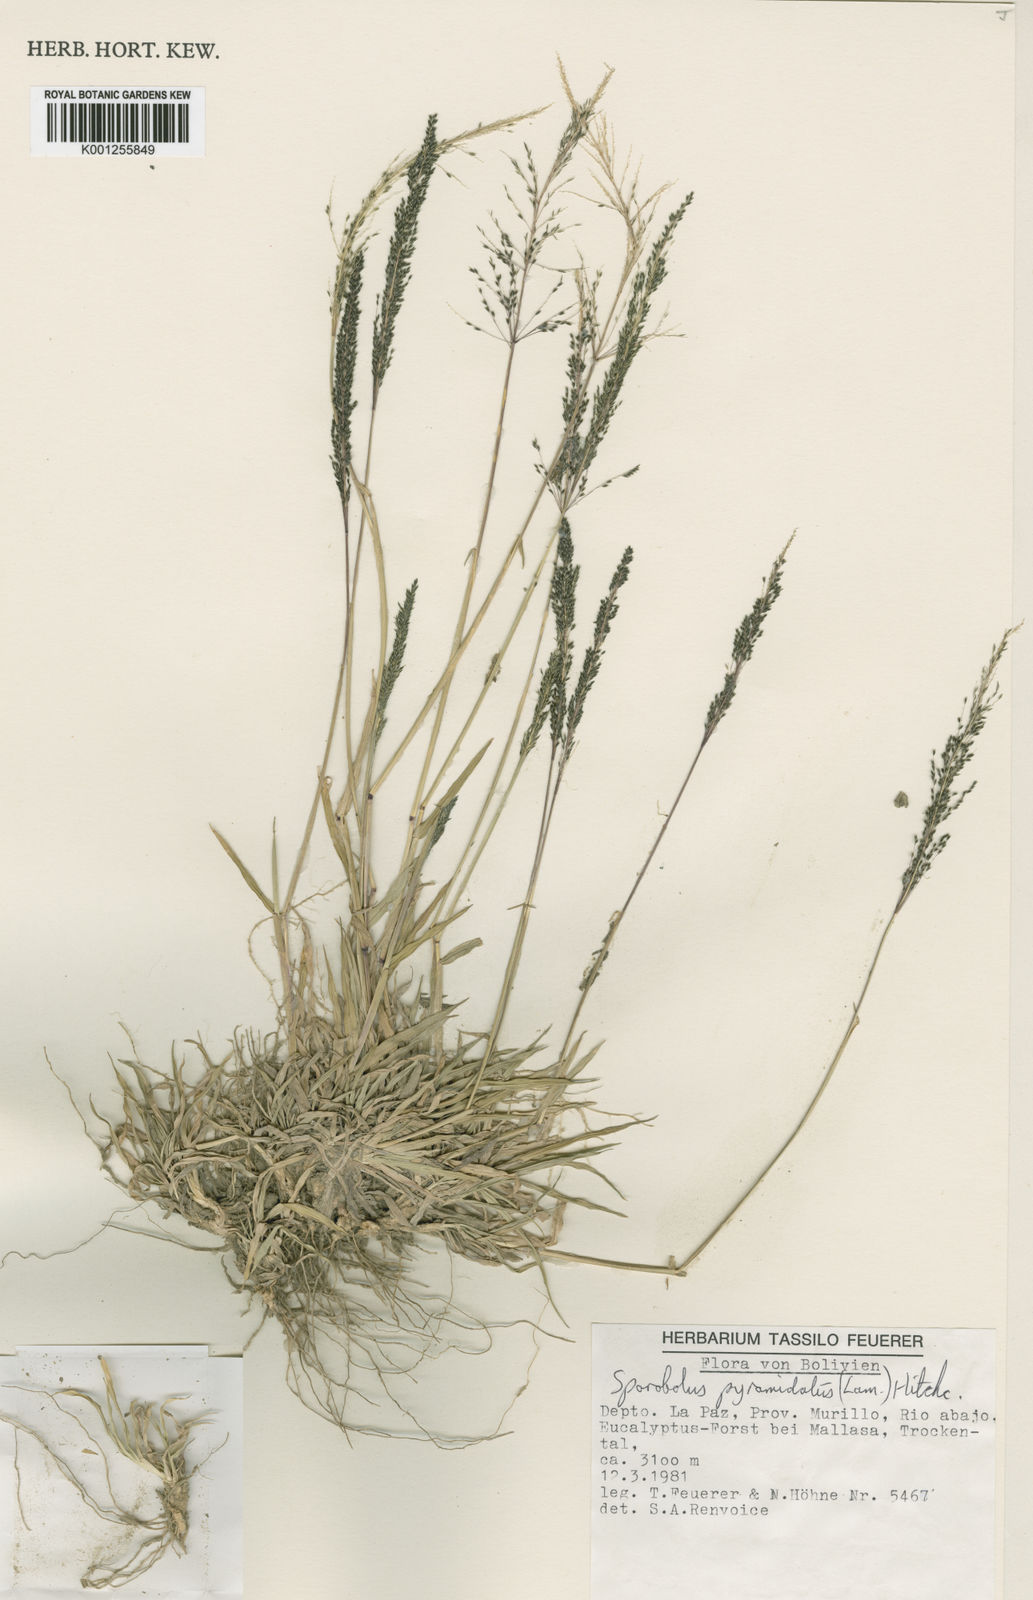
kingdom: Plantae
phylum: Tracheophyta
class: Liliopsida
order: Poales
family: Poaceae
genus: Sporobolus
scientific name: Sporobolus pyramidatus
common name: Whorled dropseed
